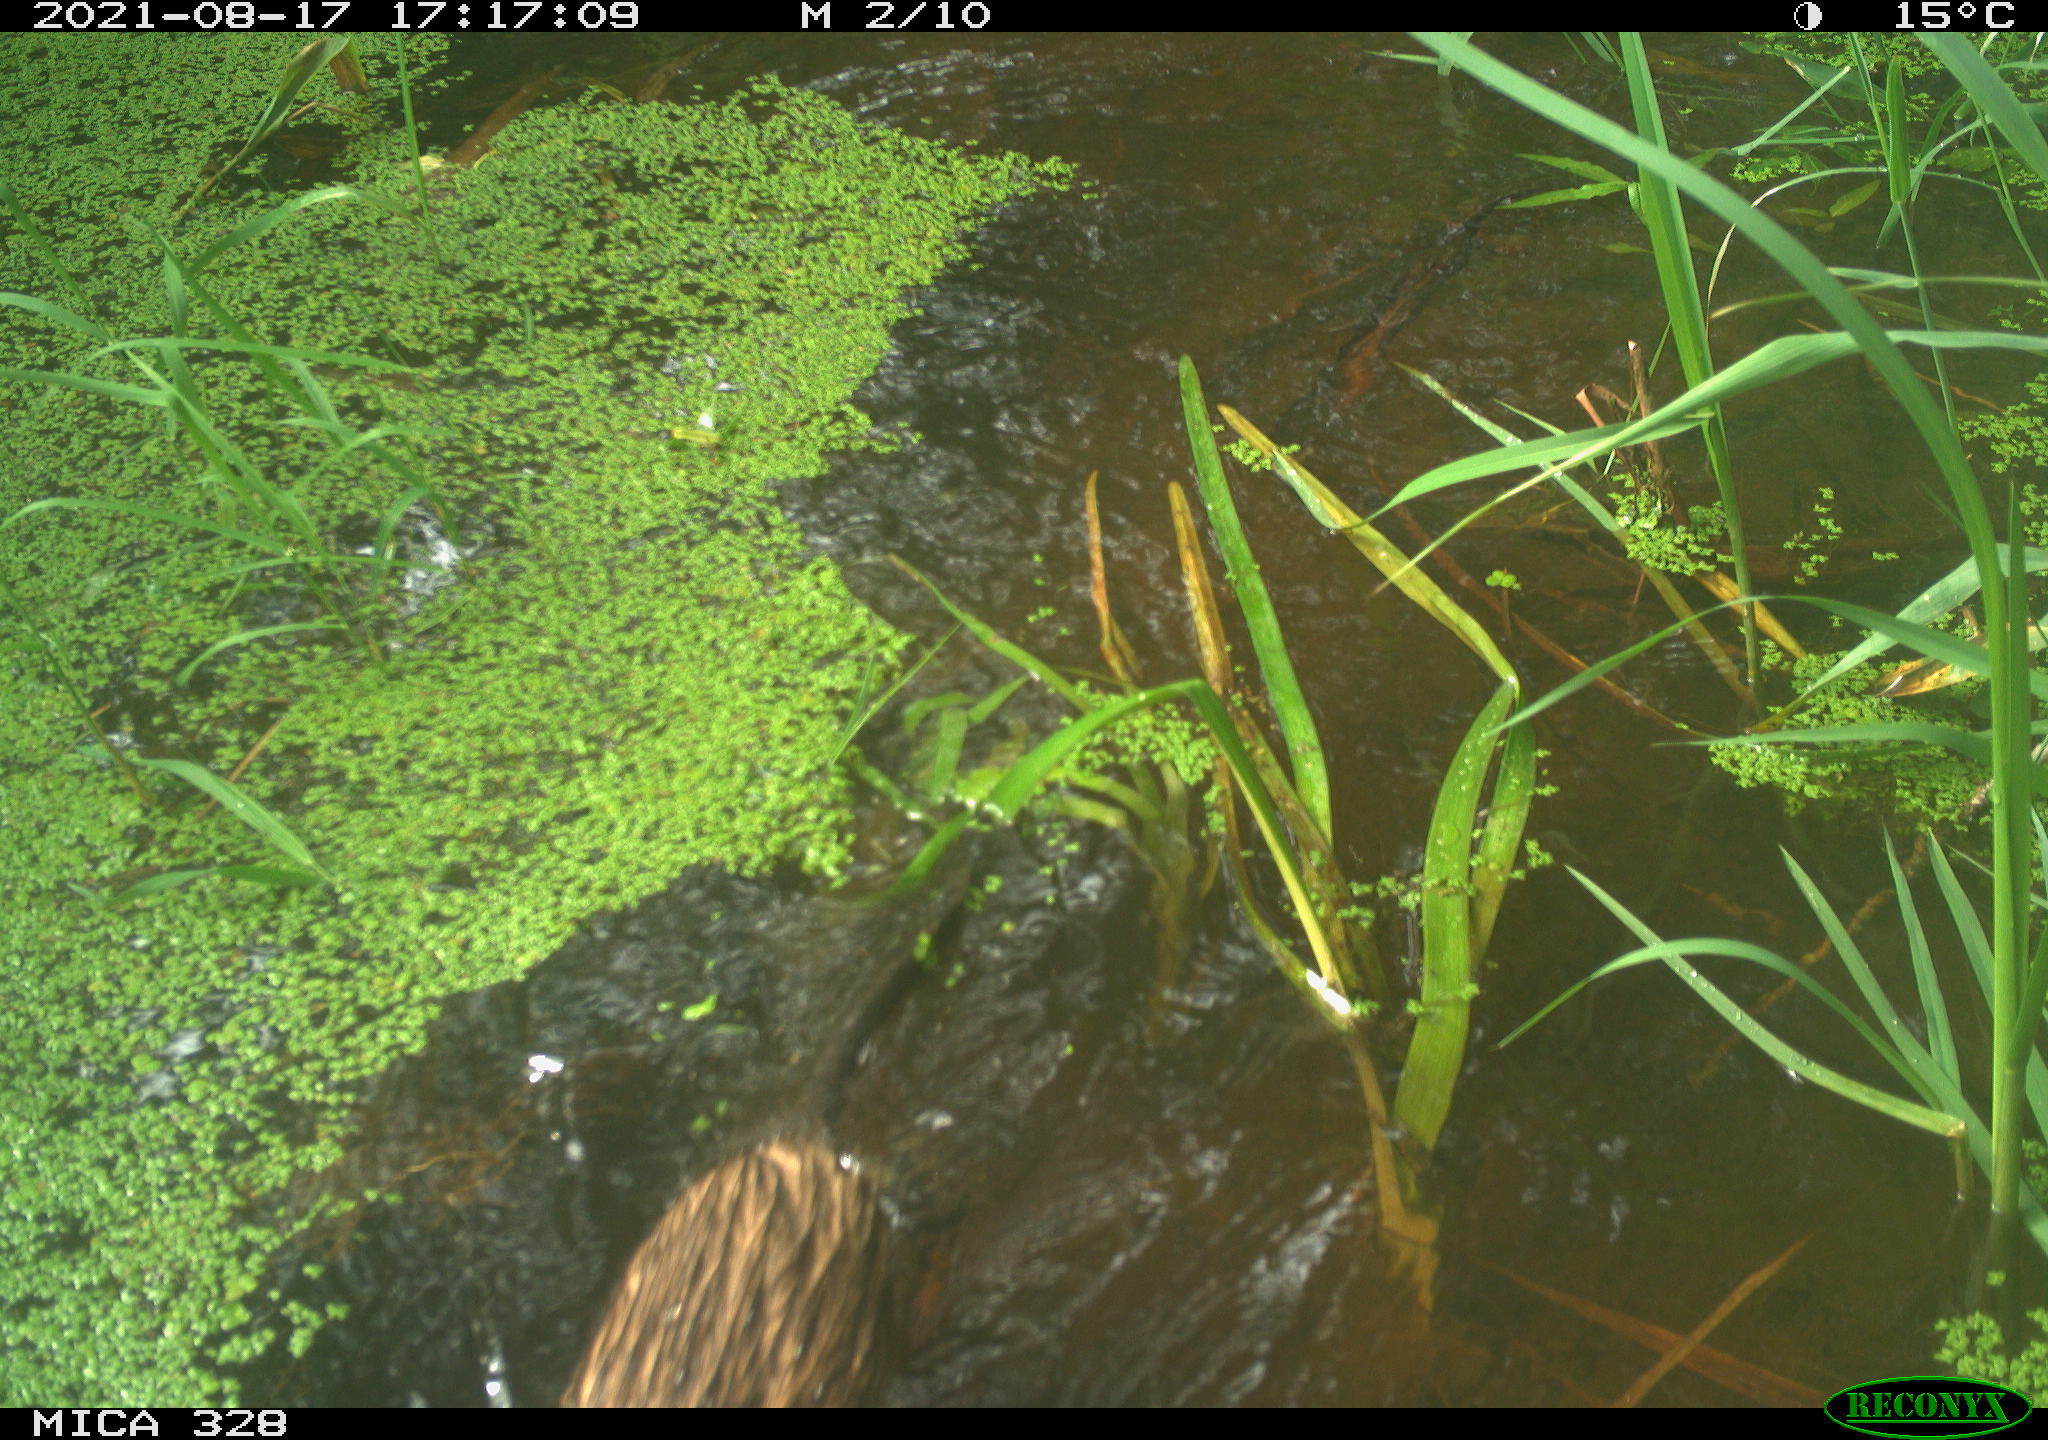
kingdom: Animalia
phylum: Chordata
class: Mammalia
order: Rodentia
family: Cricetidae
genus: Ondatra
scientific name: Ondatra zibethicus
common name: Muskrat
